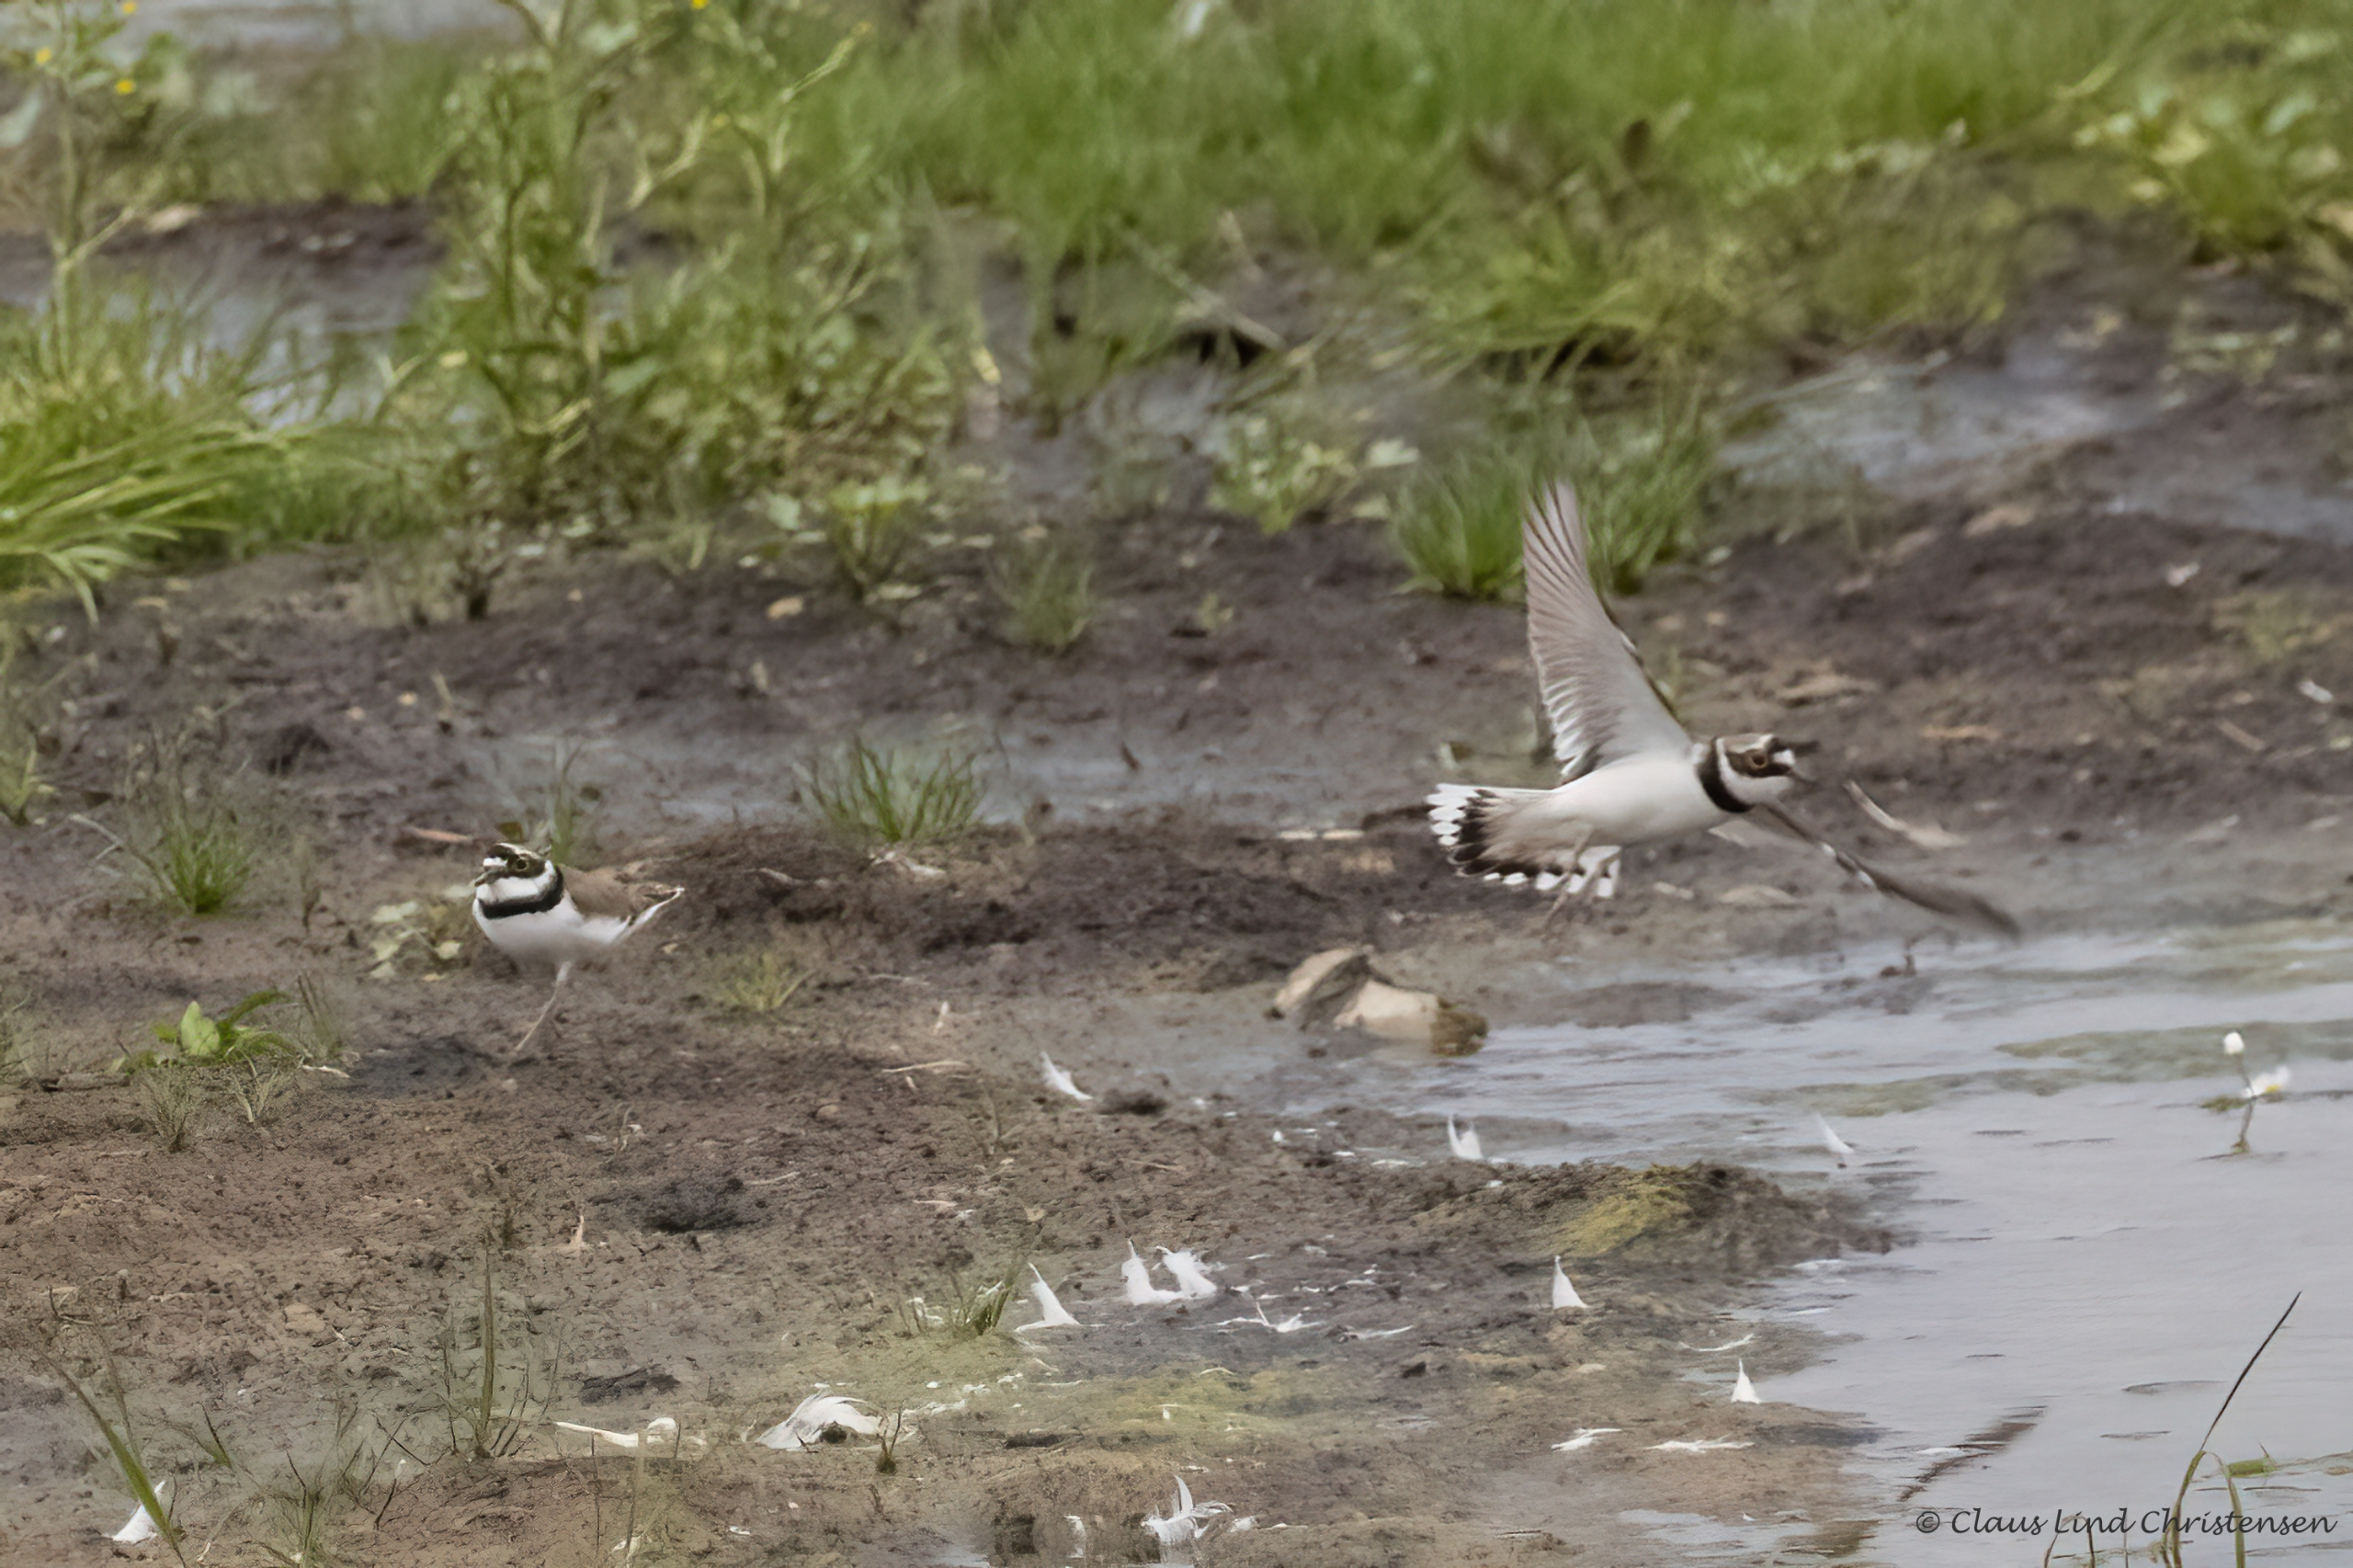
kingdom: Animalia
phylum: Chordata
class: Aves
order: Charadriiformes
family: Charadriidae
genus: Charadrius
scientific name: Charadrius dubius
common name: Lille præstekrave
